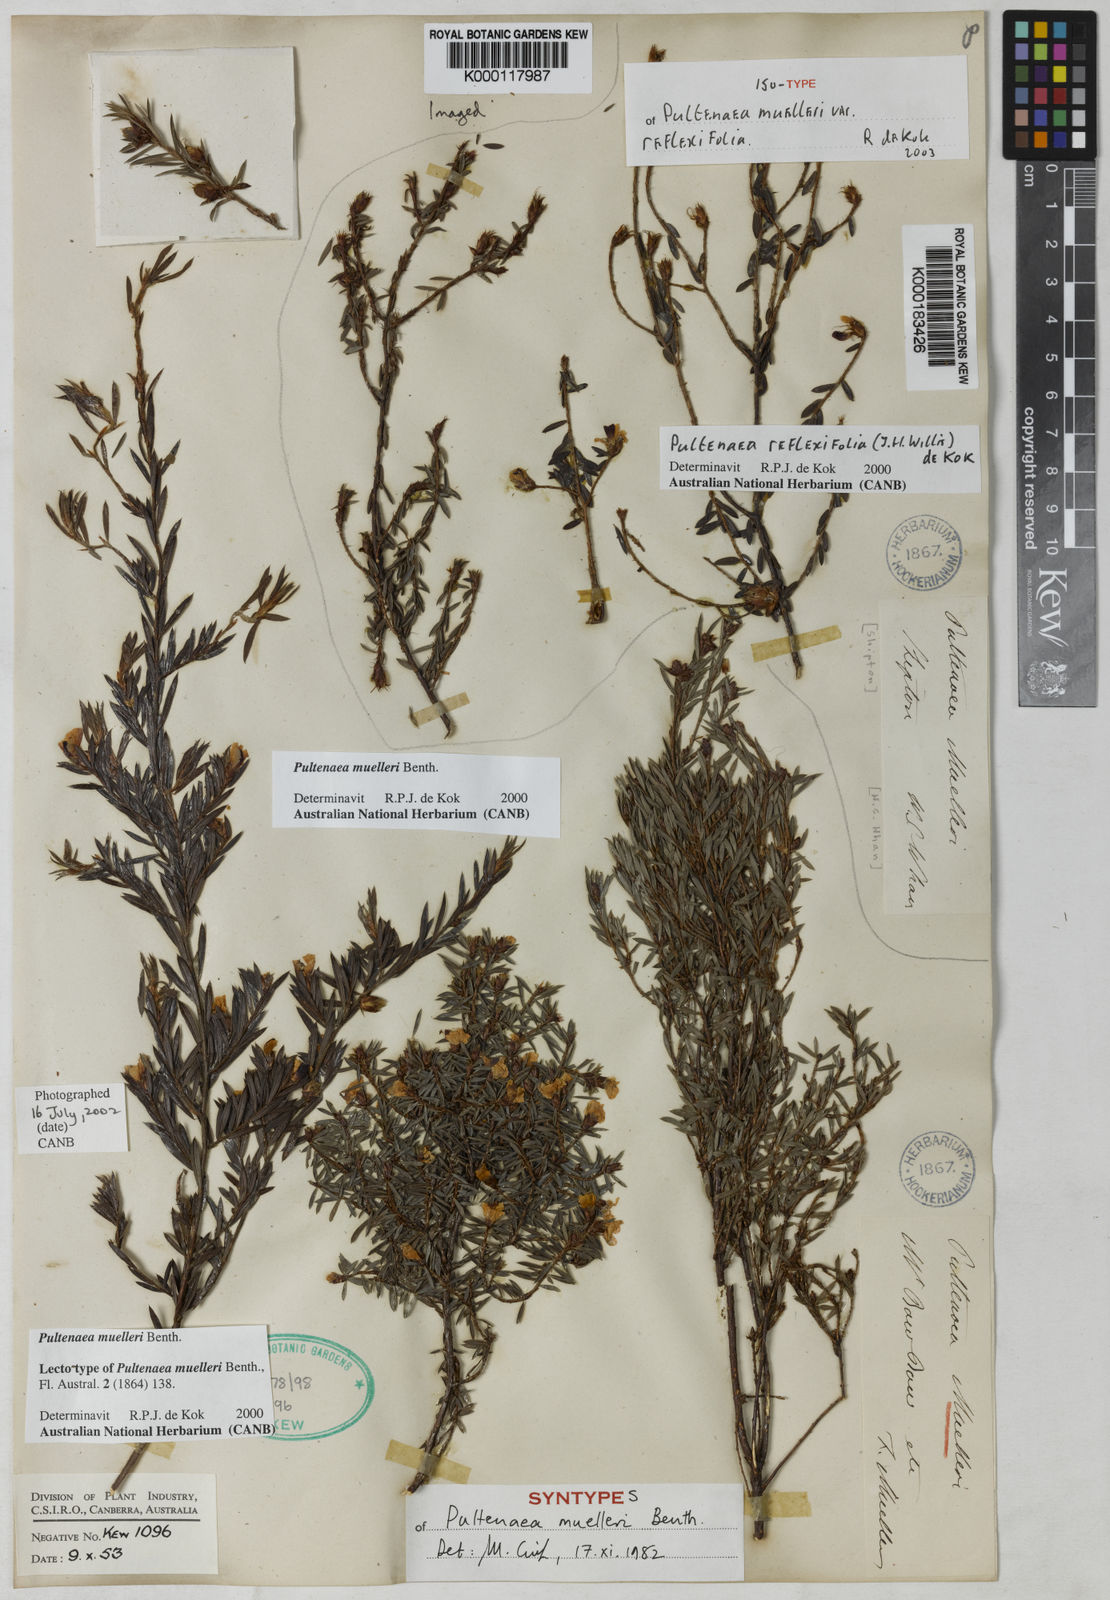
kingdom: Plantae
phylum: Tracheophyta
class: Magnoliopsida
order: Fabales
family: Fabaceae
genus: Pultenaea
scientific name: Pultenaea muelleri
